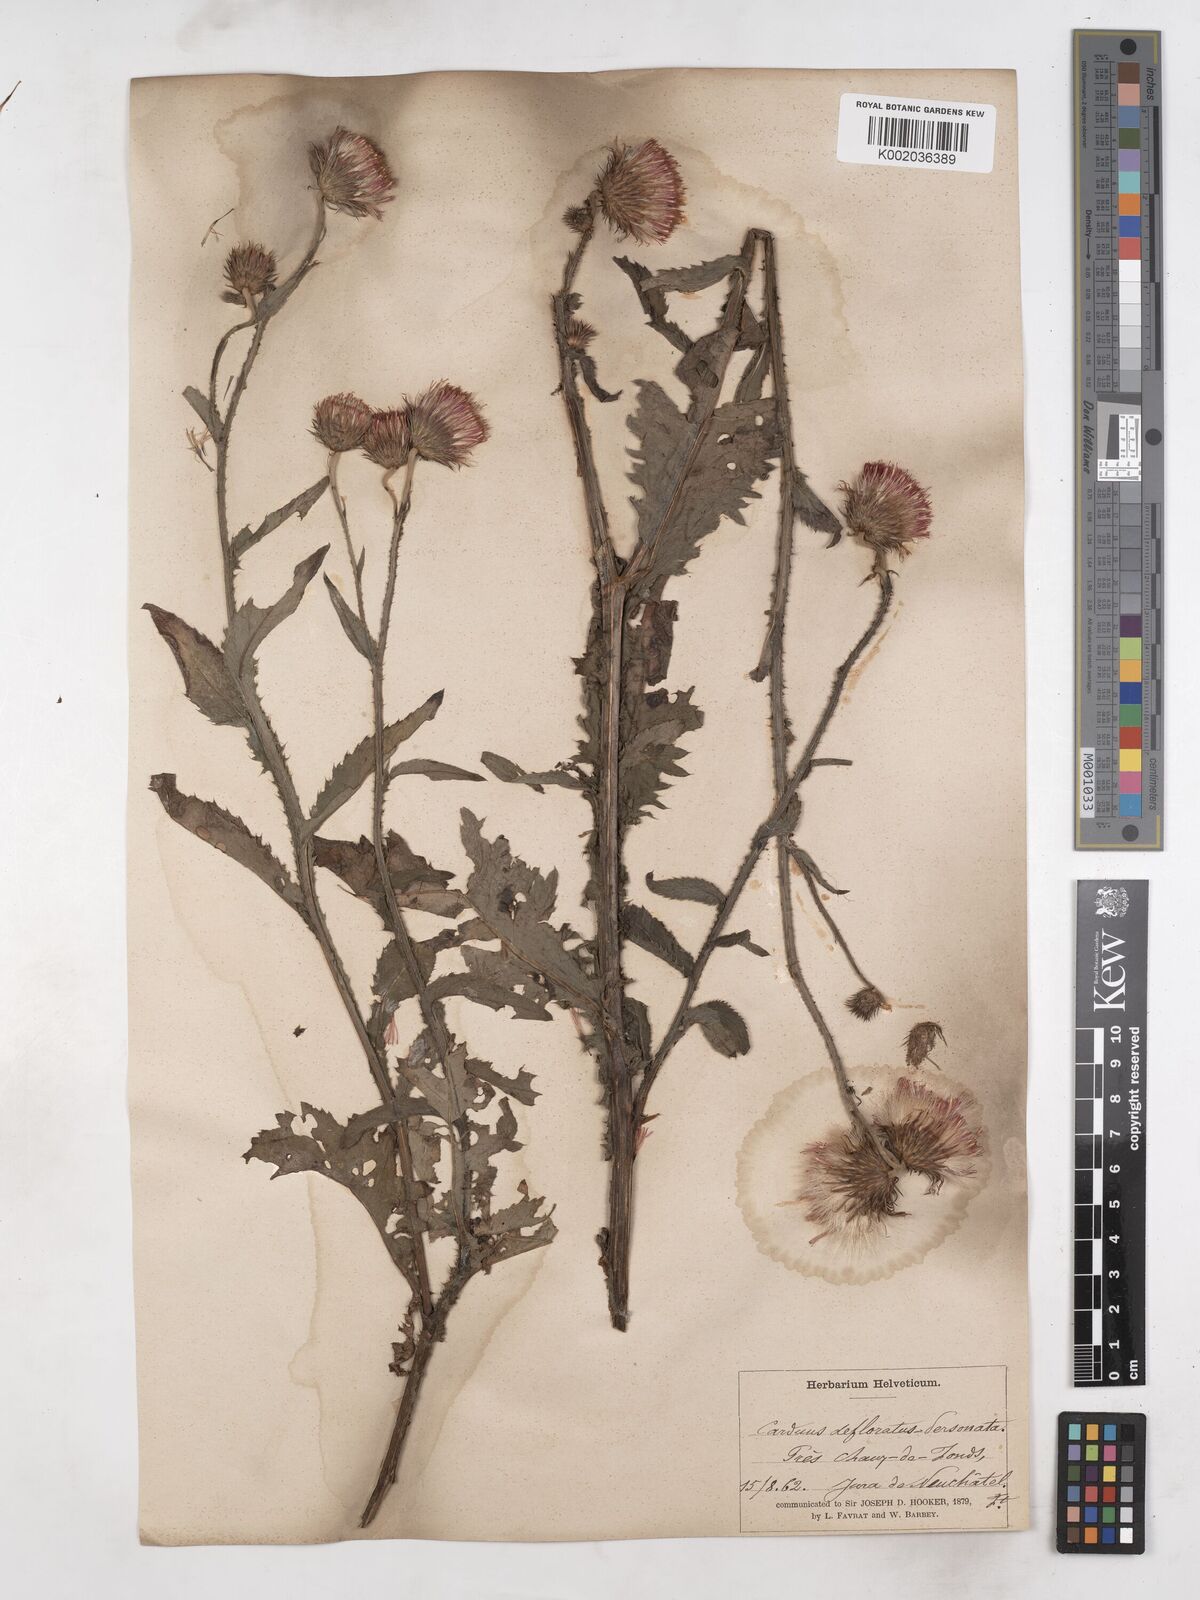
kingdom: Plantae
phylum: Tracheophyta
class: Magnoliopsida
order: Asterales
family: Asteraceae
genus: Carduus
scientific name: Carduus defloratus
